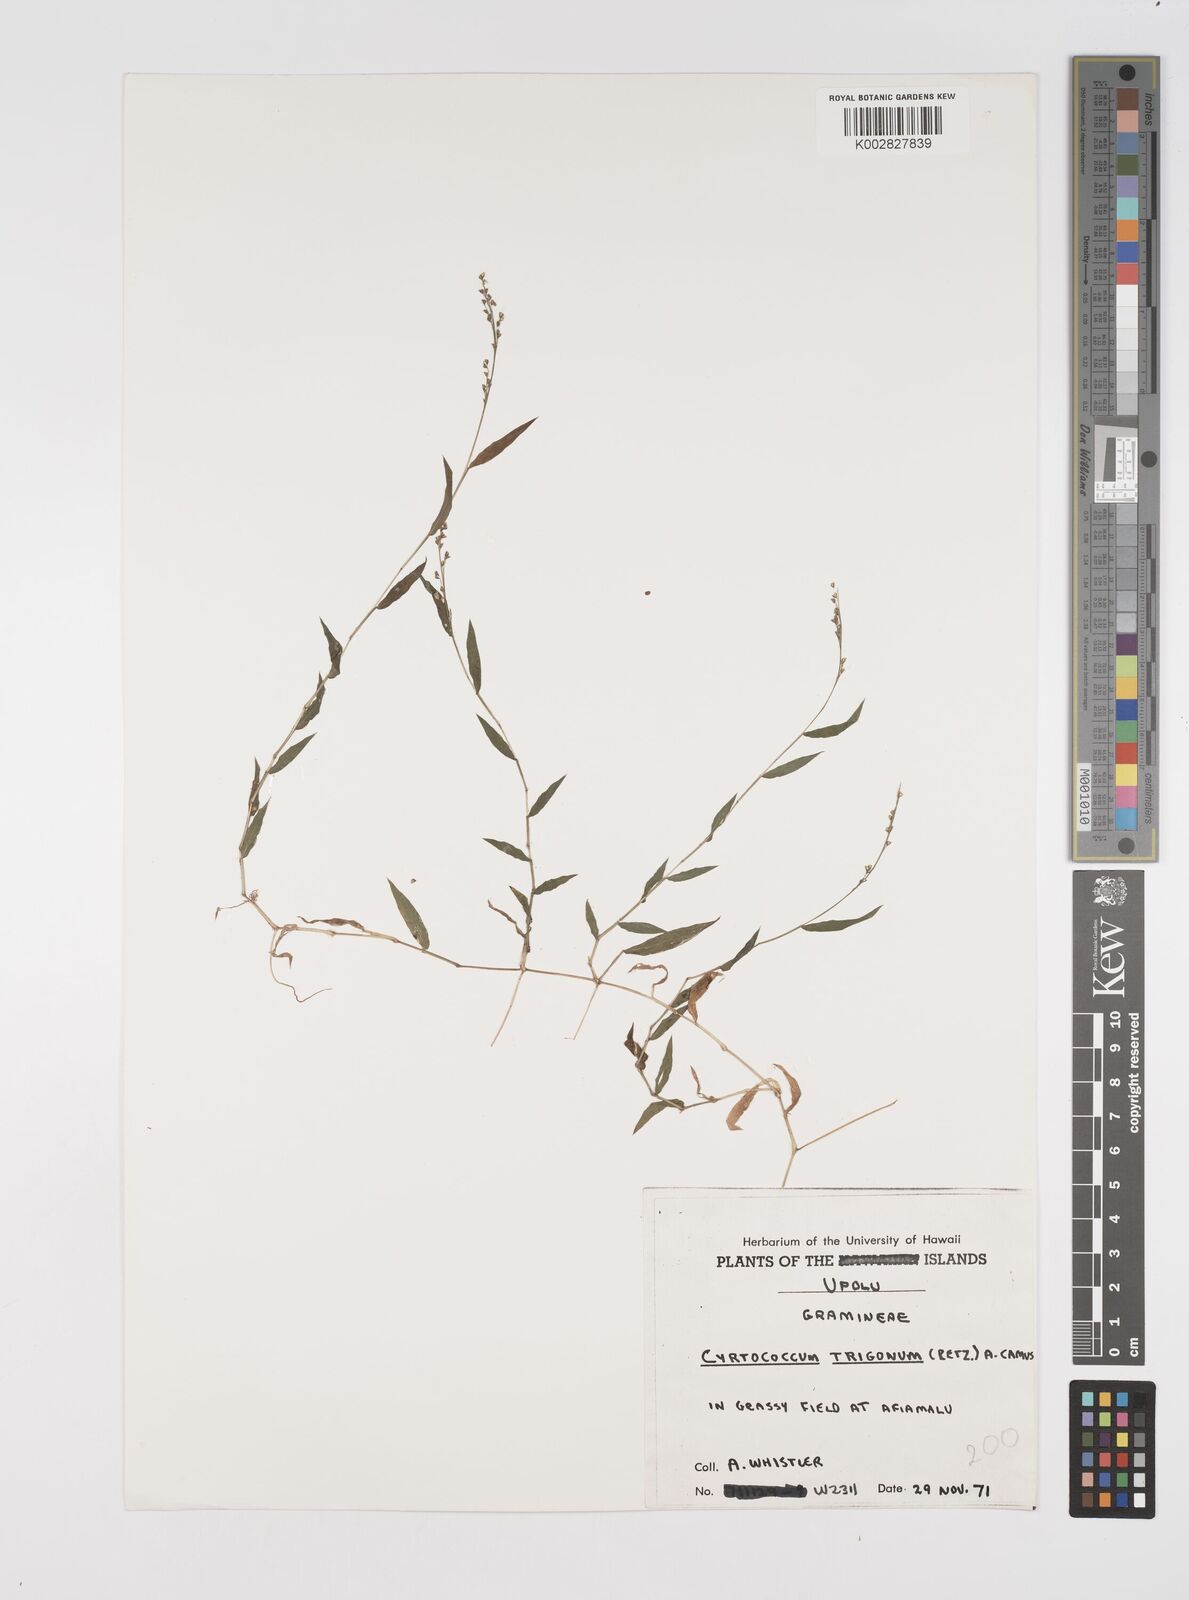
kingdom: Plantae
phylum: Tracheophyta
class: Liliopsida
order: Poales
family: Poaceae
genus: Cyrtococcum
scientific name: Cyrtococcum trigonum
